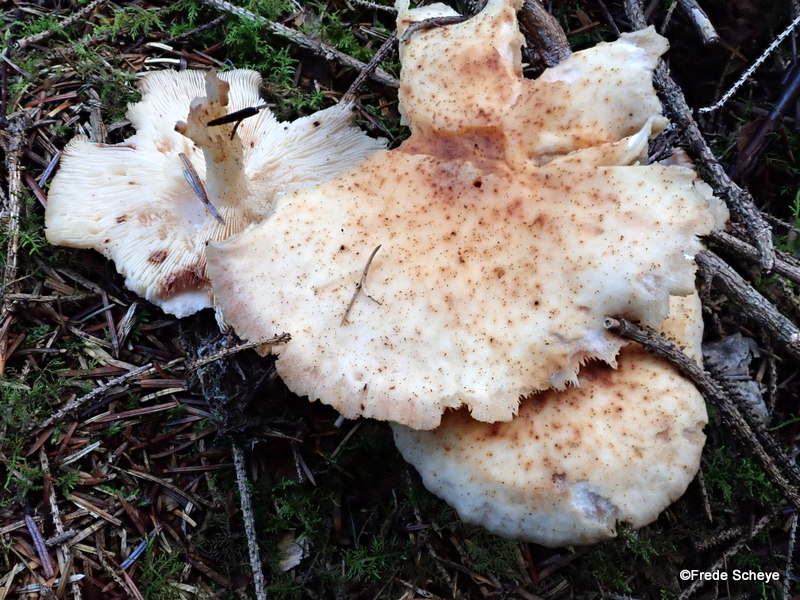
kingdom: Fungi
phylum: Basidiomycota
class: Agaricomycetes
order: Agaricales
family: Omphalotaceae
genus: Rhodocollybia
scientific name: Rhodocollybia maculata
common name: plettet fladhat
